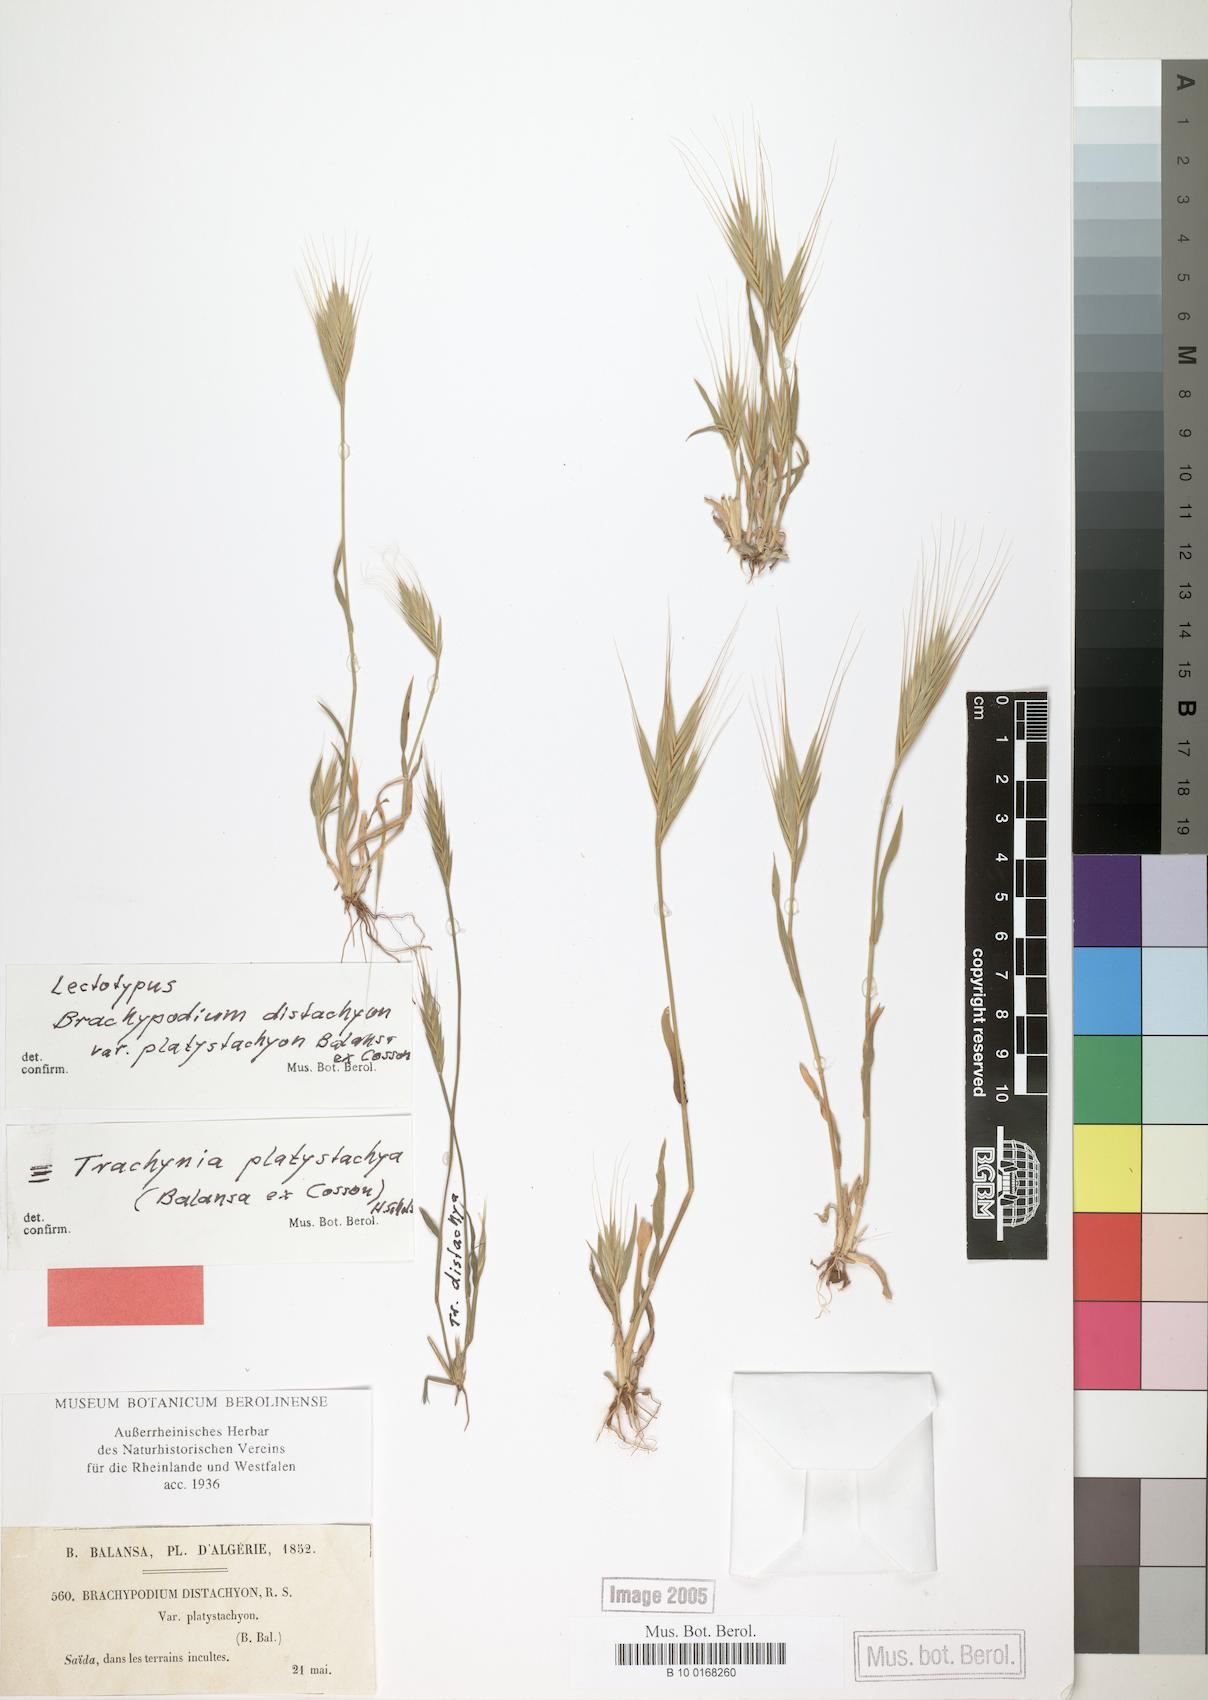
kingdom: Plantae
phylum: Tracheophyta
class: Liliopsida
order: Poales
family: Poaceae
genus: Brachypodium
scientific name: Brachypodium distachyon
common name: Stiff brome
